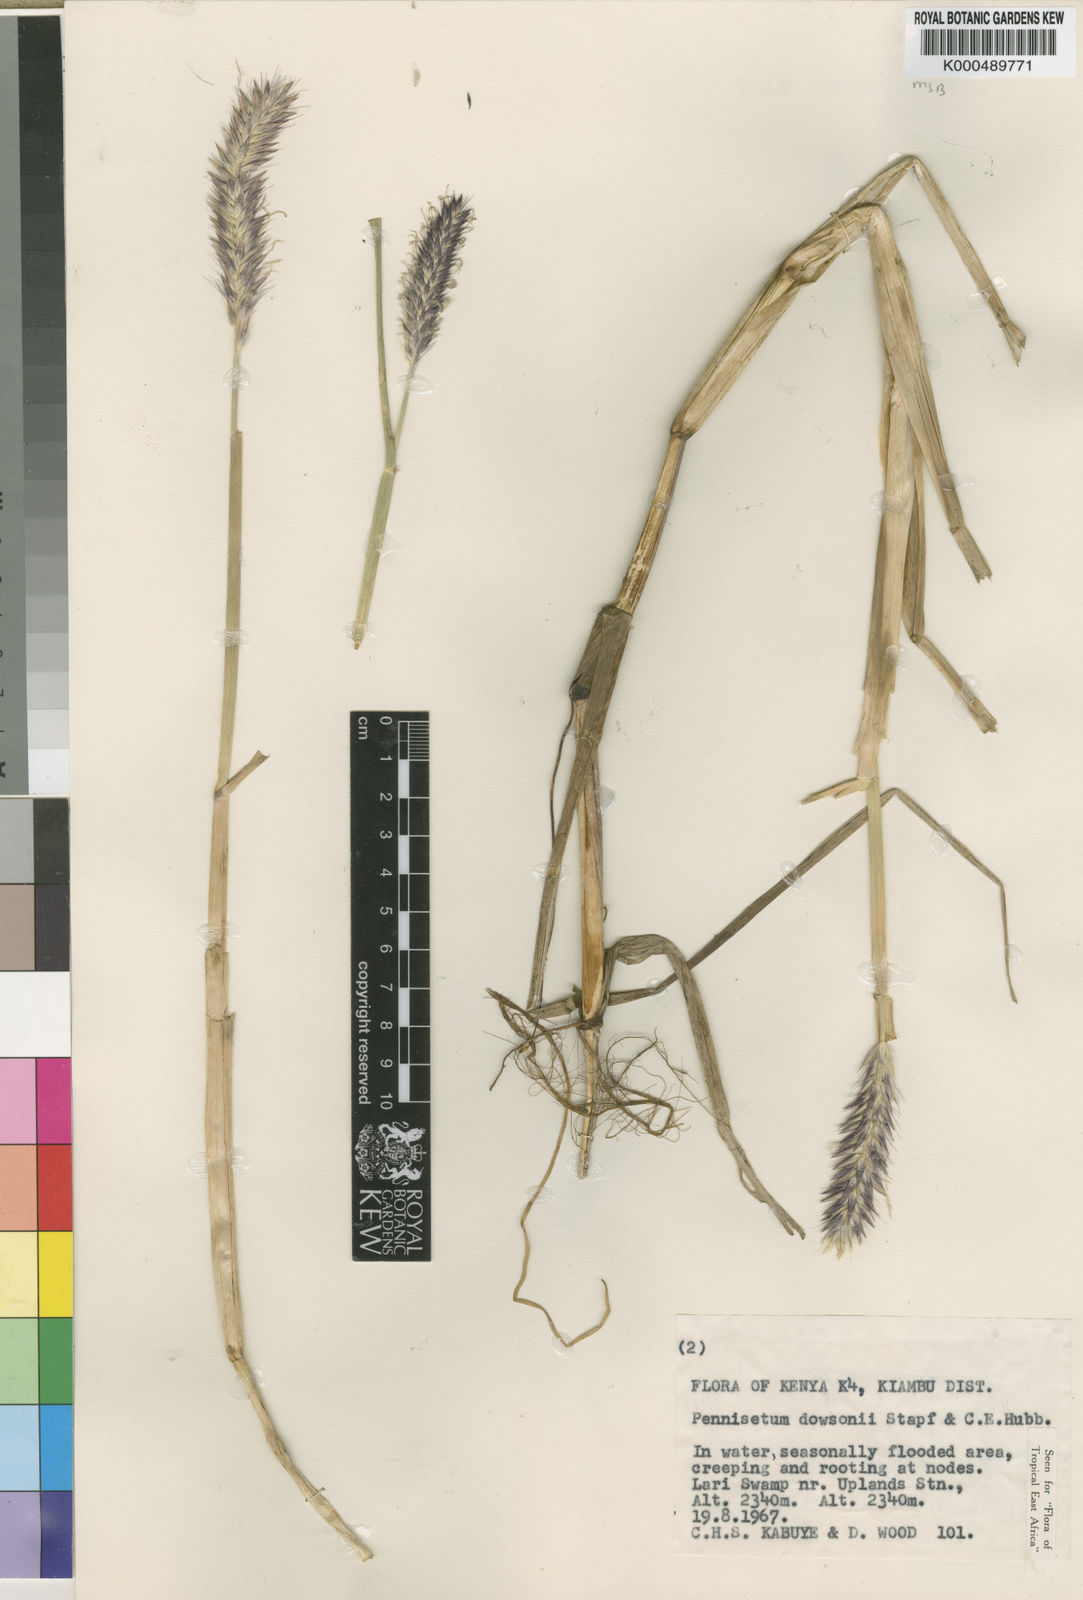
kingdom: Plantae
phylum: Tracheophyta
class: Liliopsida
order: Poales
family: Poaceae
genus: Cenchrus
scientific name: Cenchrus Pennisetum spec
